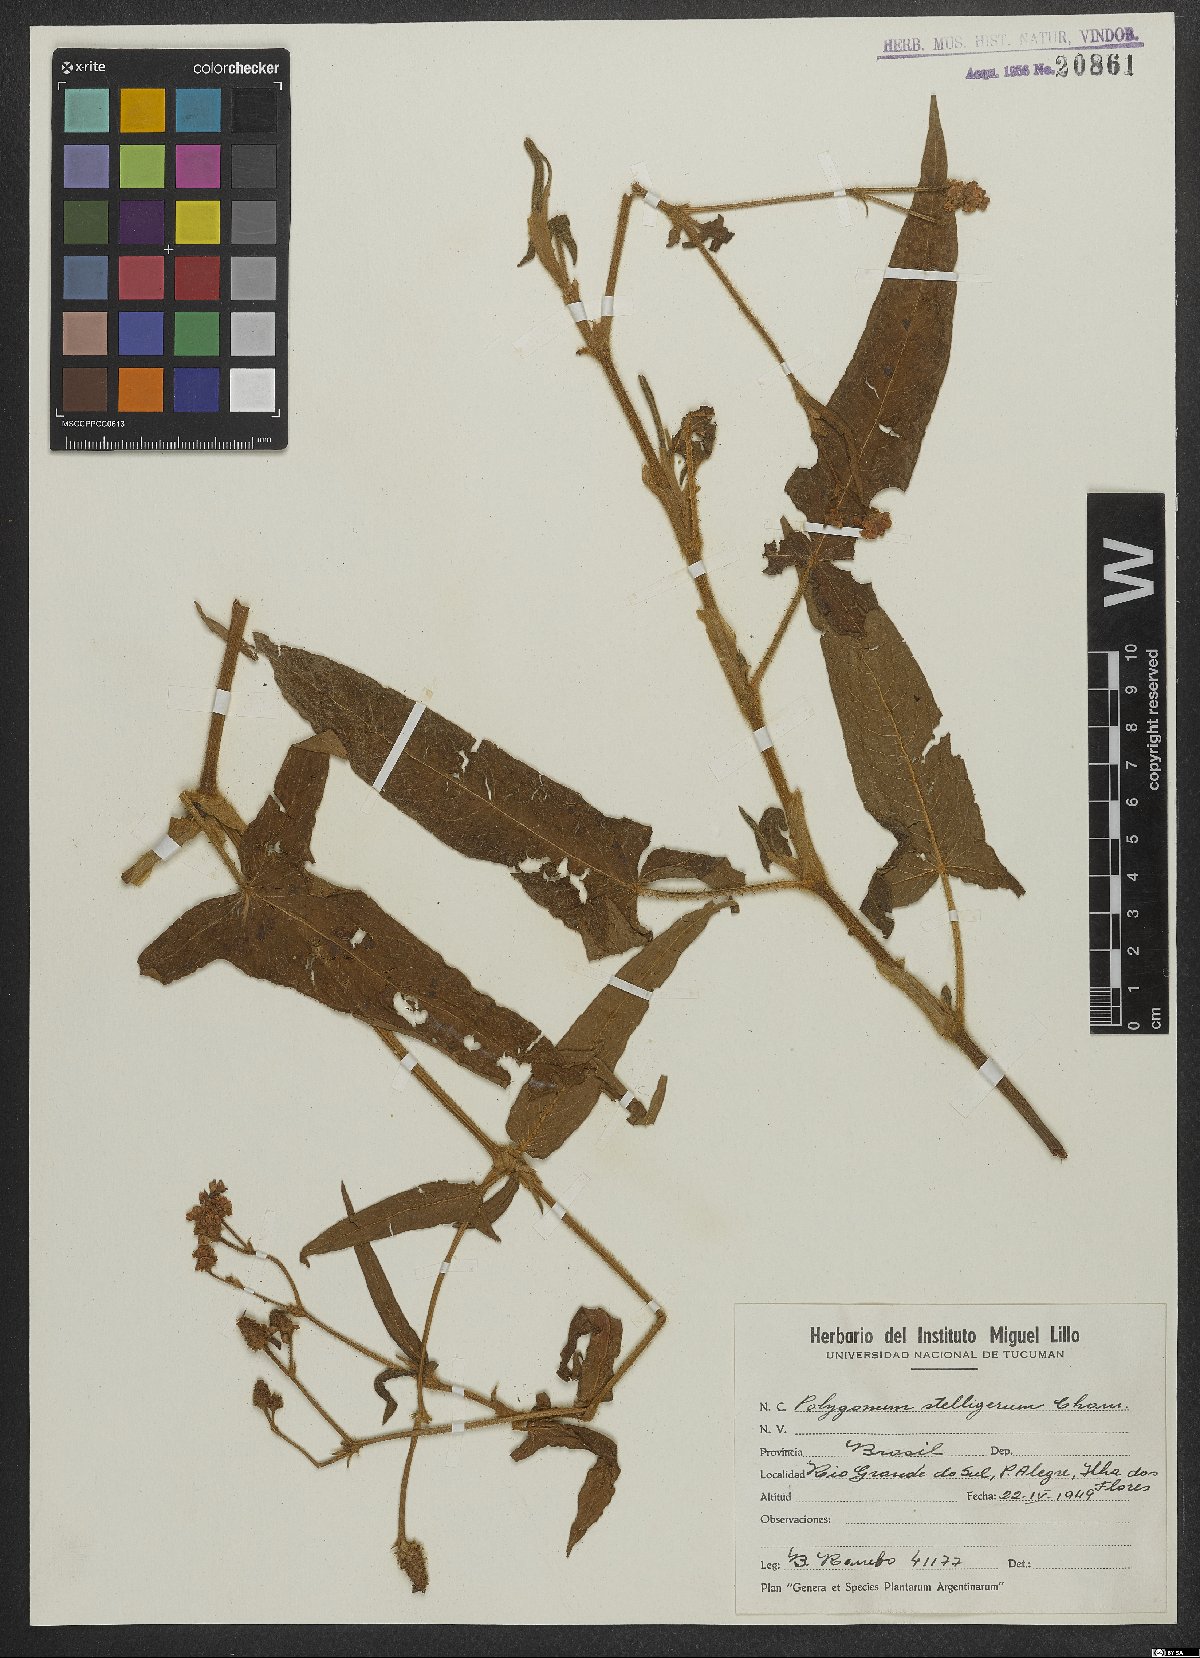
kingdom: Plantae
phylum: Tracheophyta
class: Magnoliopsida
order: Caryophyllales
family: Polygonaceae
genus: Persicaria
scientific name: Persicaria stelligera
